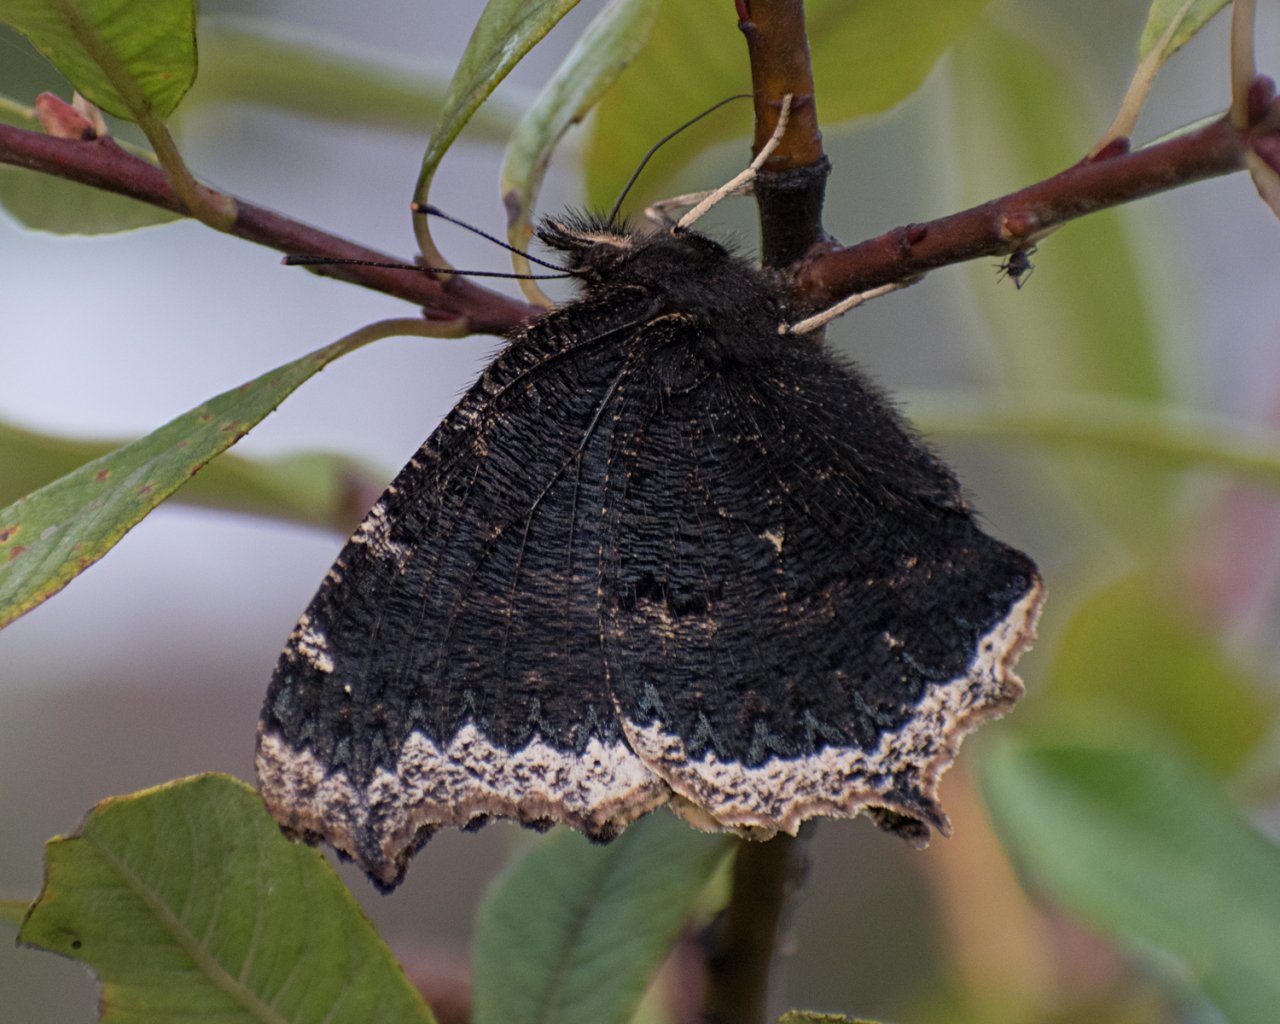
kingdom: Animalia
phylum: Arthropoda
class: Insecta
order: Lepidoptera
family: Nymphalidae
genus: Nymphalis
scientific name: Nymphalis antiopa
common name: Mourning Cloak
